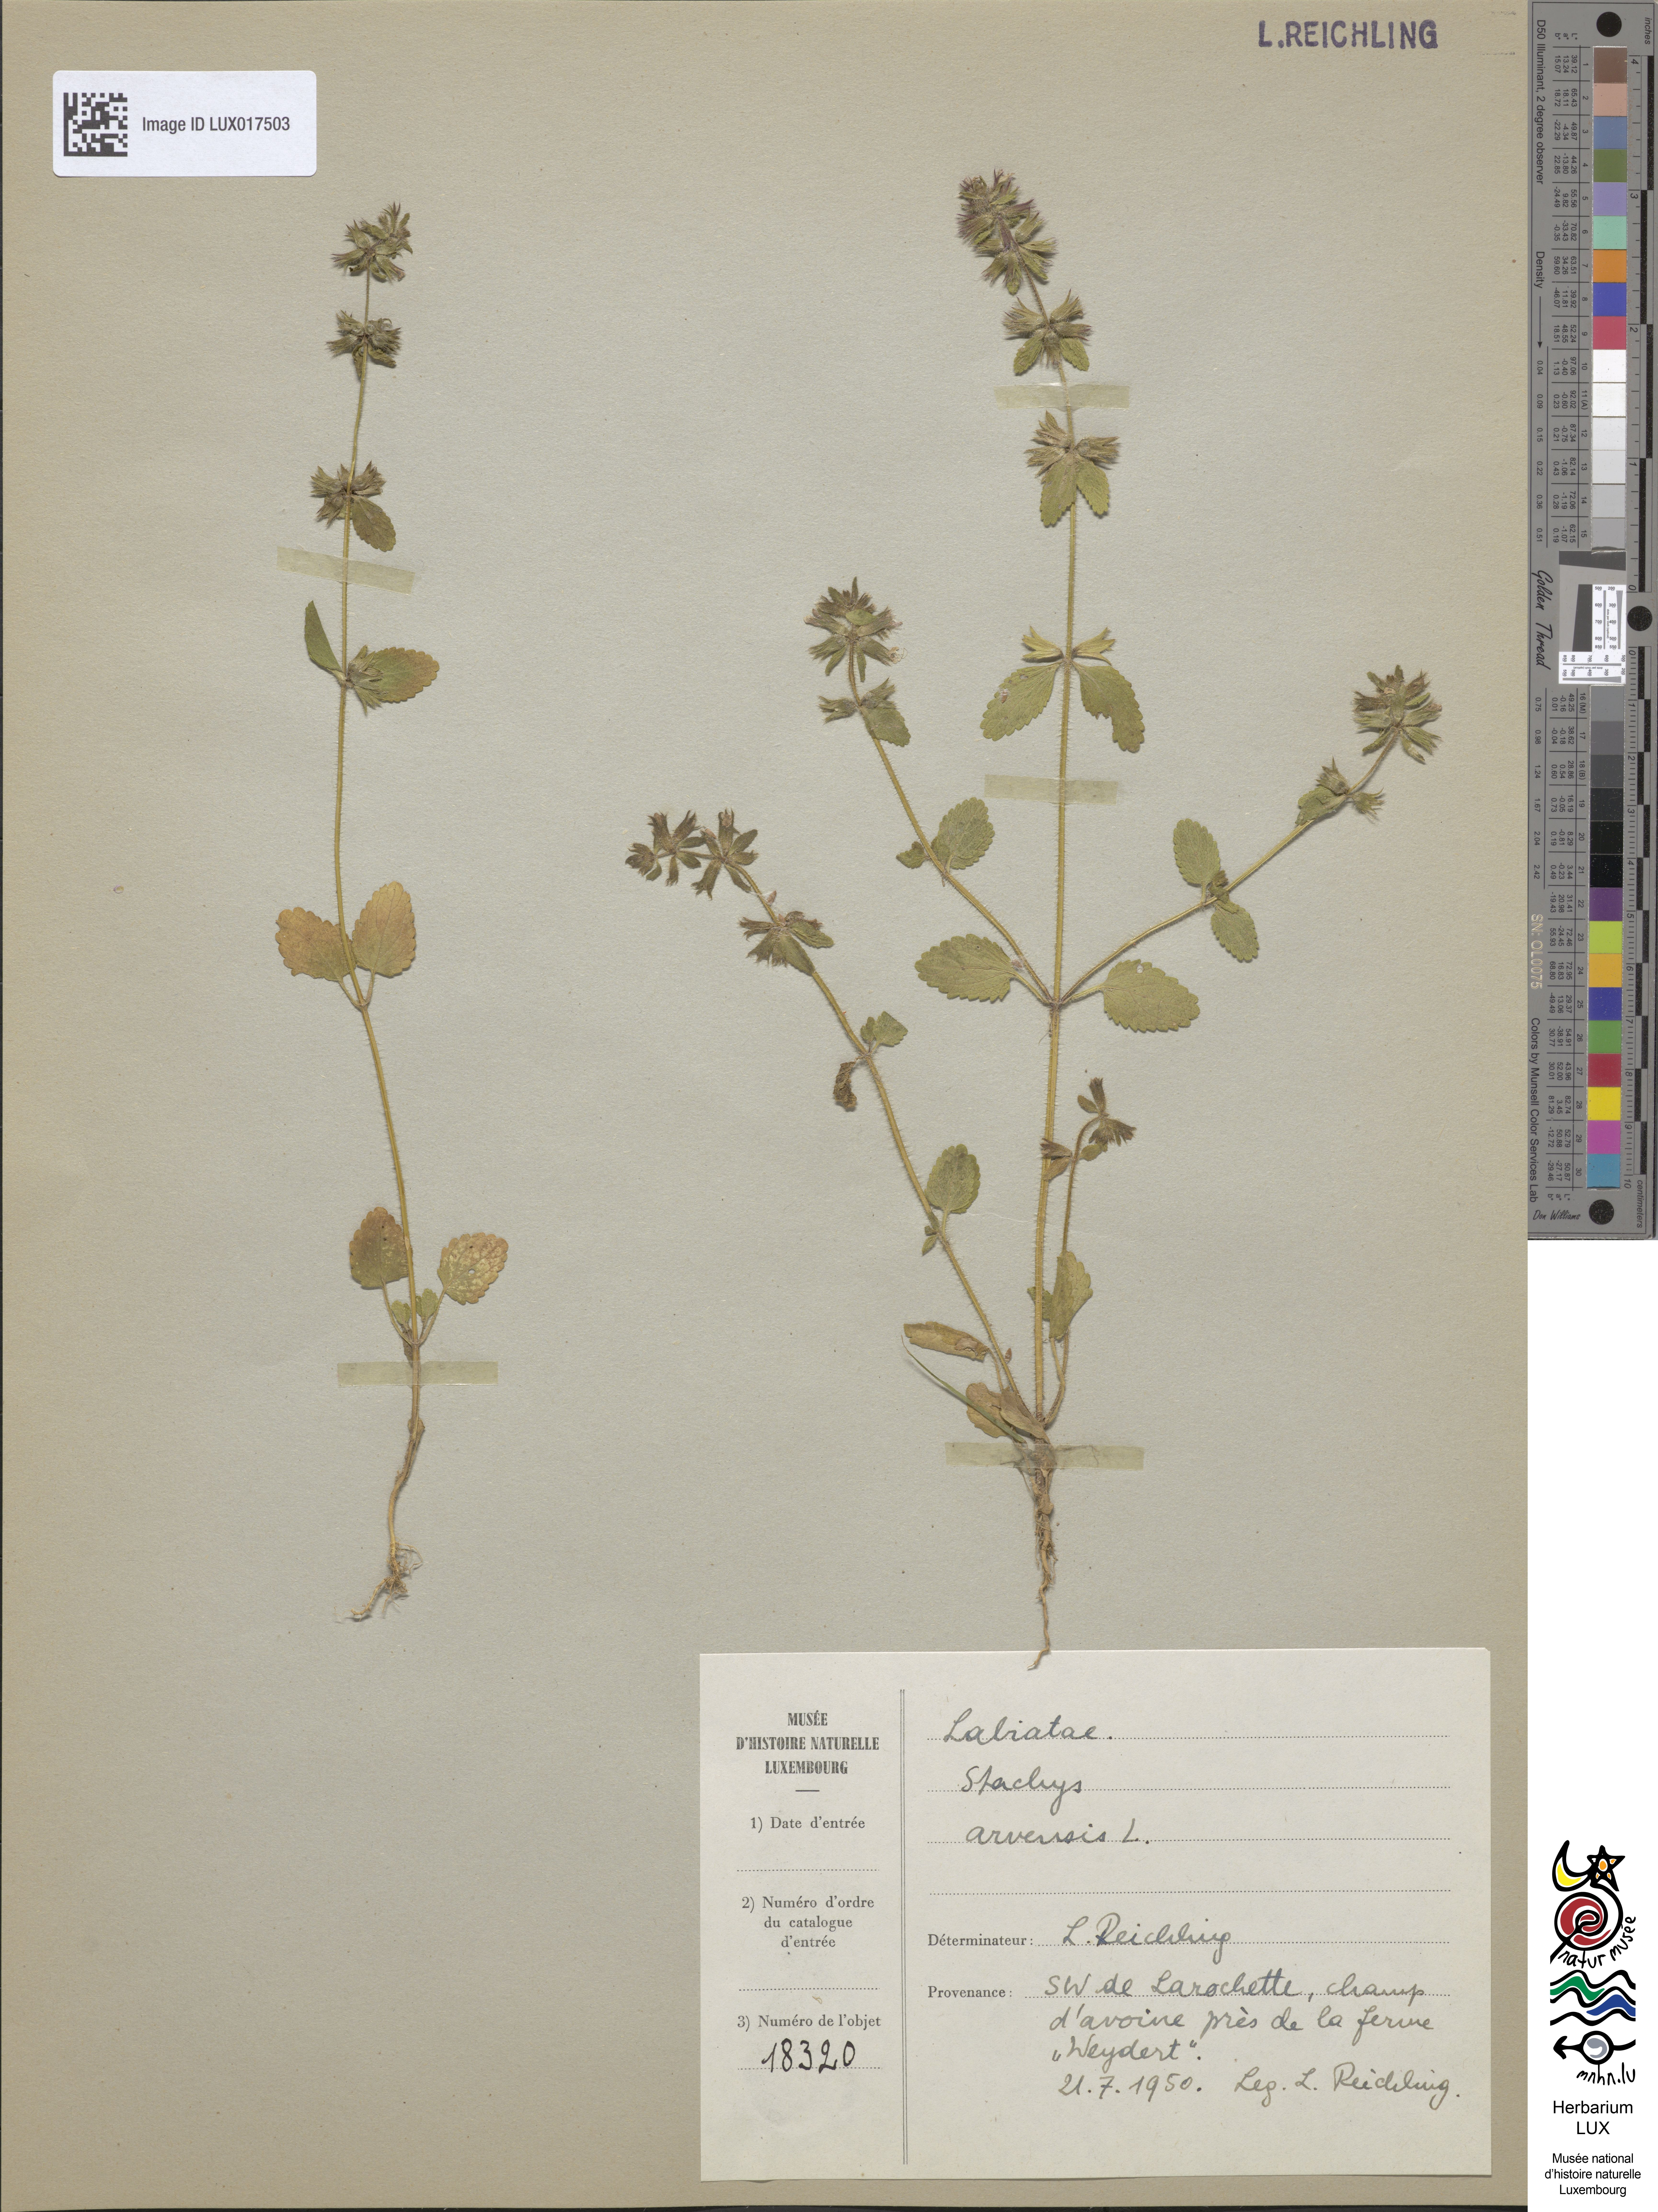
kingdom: Plantae
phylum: Tracheophyta
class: Magnoliopsida
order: Lamiales
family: Lamiaceae
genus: Stachys
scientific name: Stachys arvensis
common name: Field woundwort
